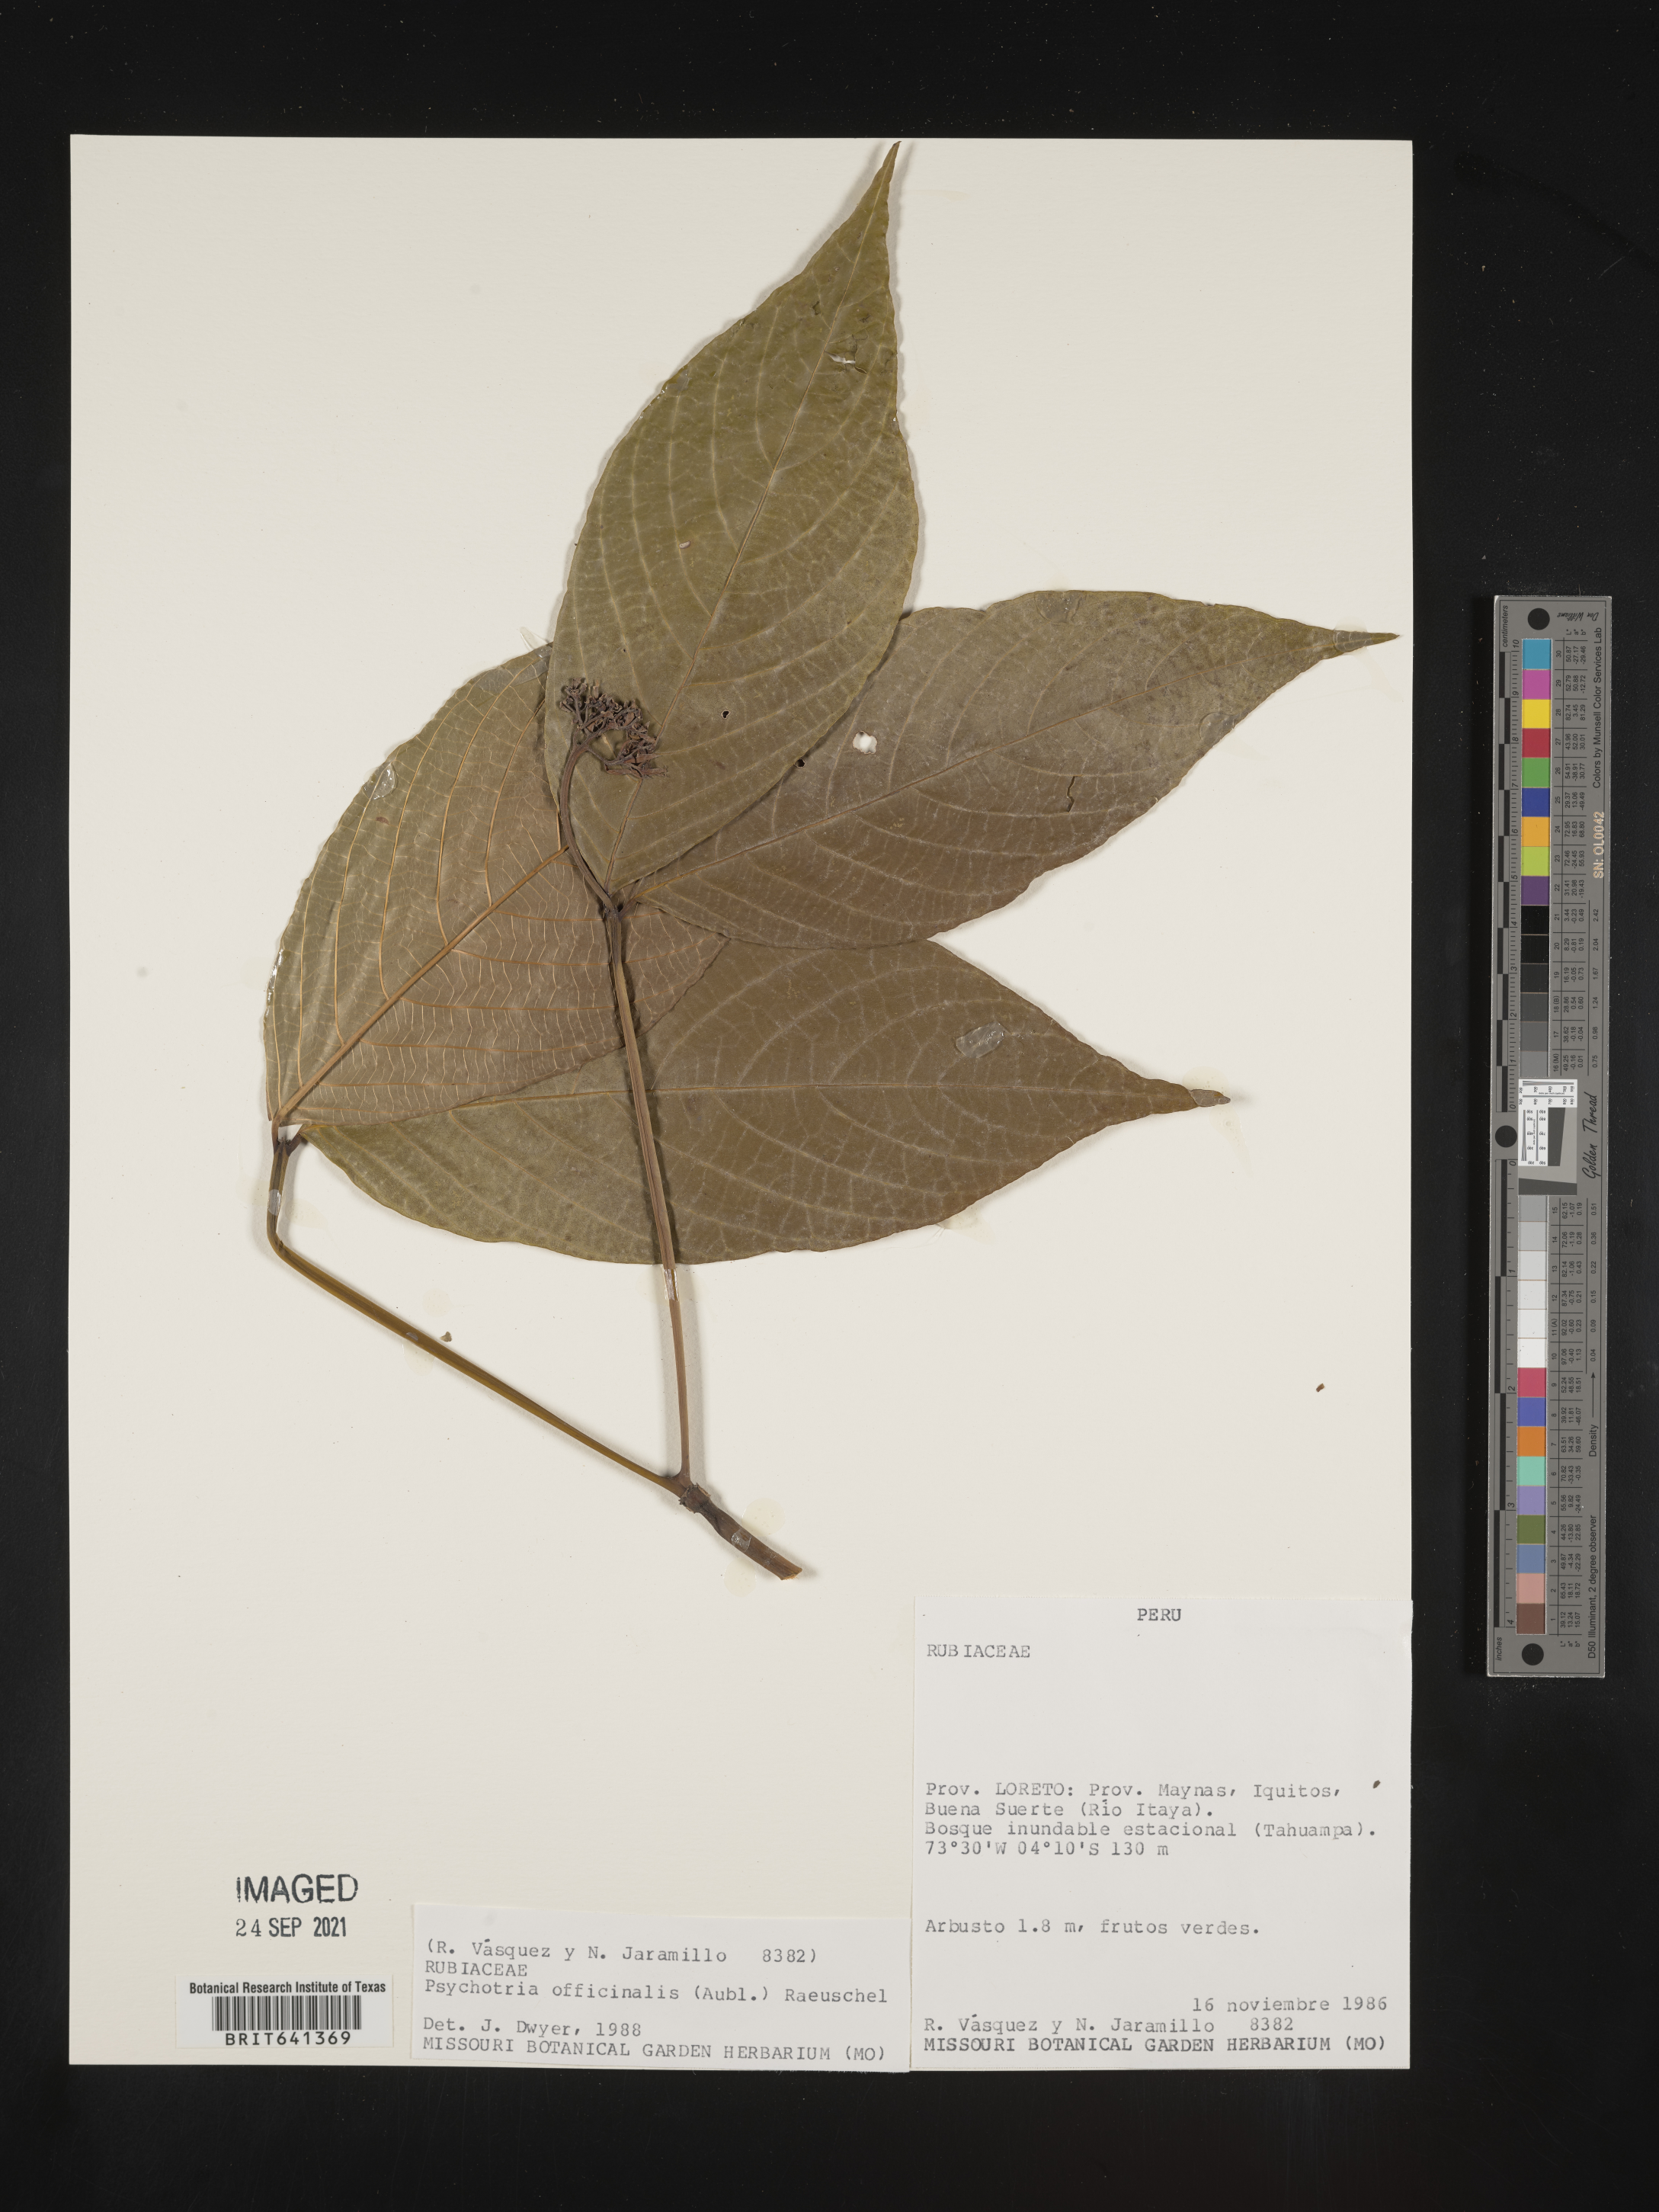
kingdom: Plantae
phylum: Tracheophyta
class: Magnoliopsida
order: Gentianales
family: Rubiaceae
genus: Psychotria
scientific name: Psychotria
